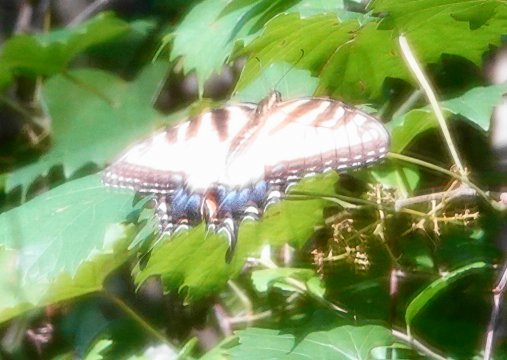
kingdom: Animalia
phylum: Arthropoda
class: Insecta
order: Lepidoptera
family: Papilionidae
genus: Pterourus
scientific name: Pterourus glaucus
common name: Eastern Tiger Swallowtail
